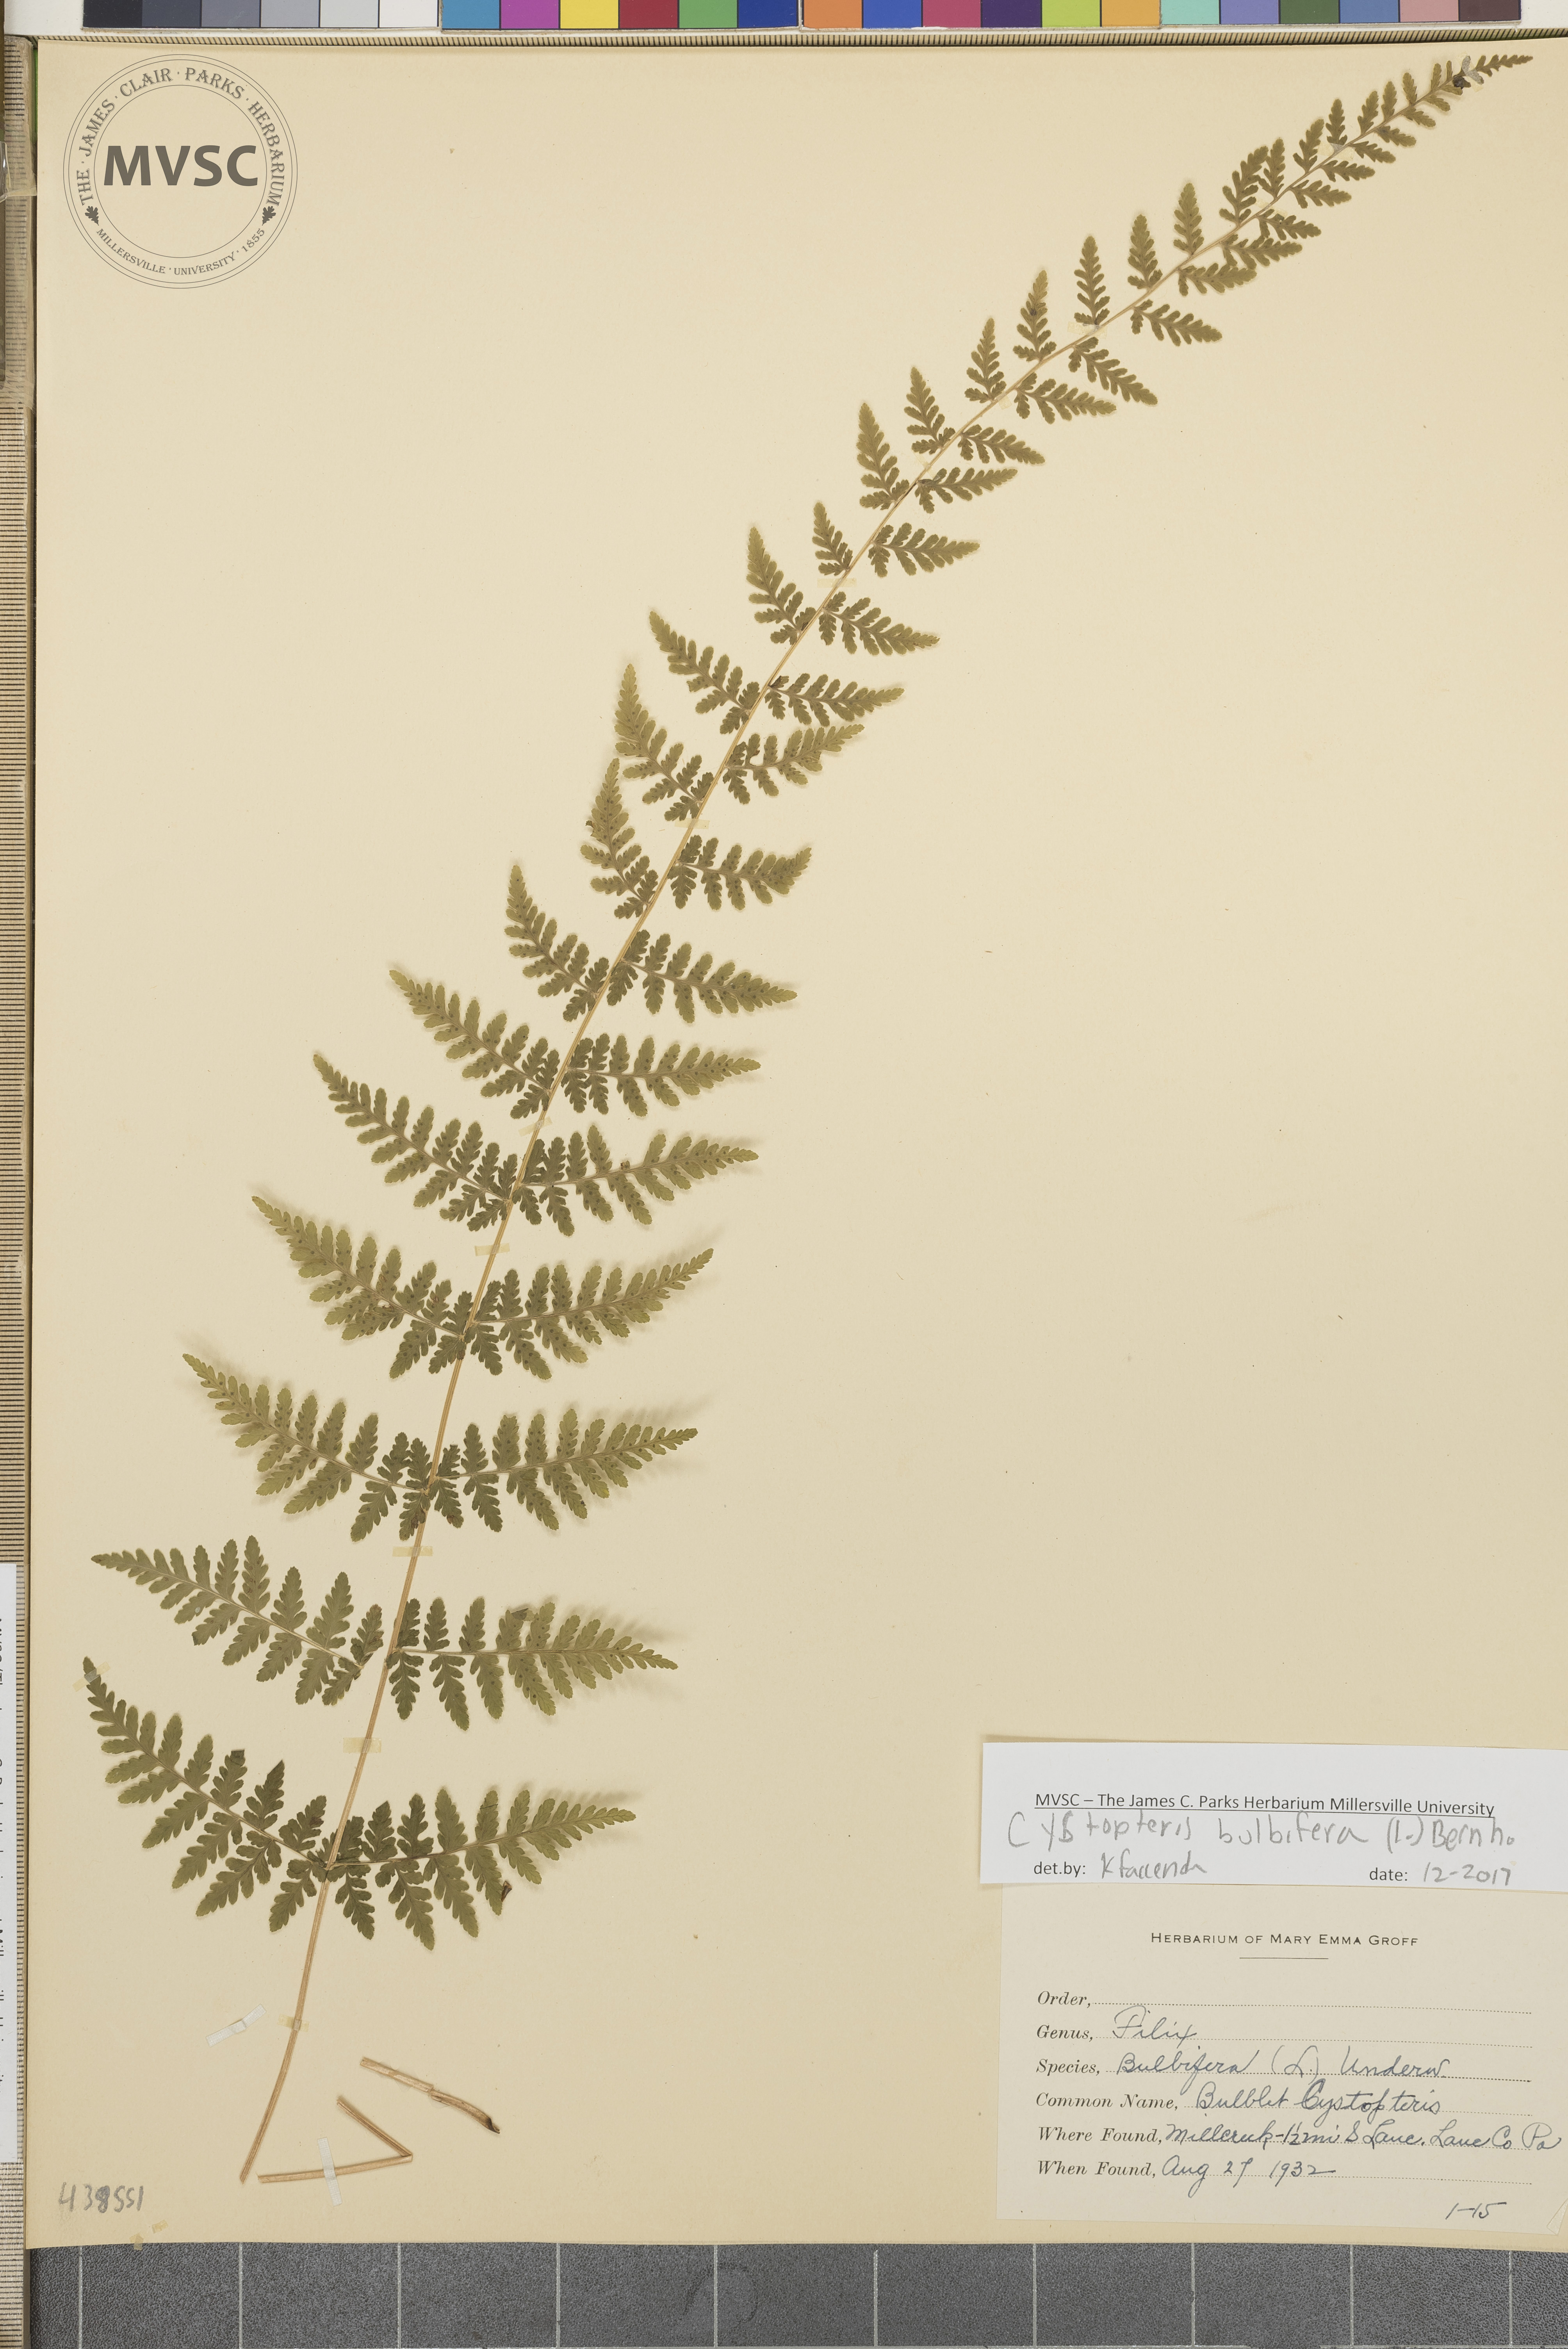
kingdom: Plantae
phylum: Tracheophyta
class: Polypodiopsida
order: Polypodiales
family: Cystopteridaceae
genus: Cystopteris
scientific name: Cystopteris bulbifera
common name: Bulblet fern
